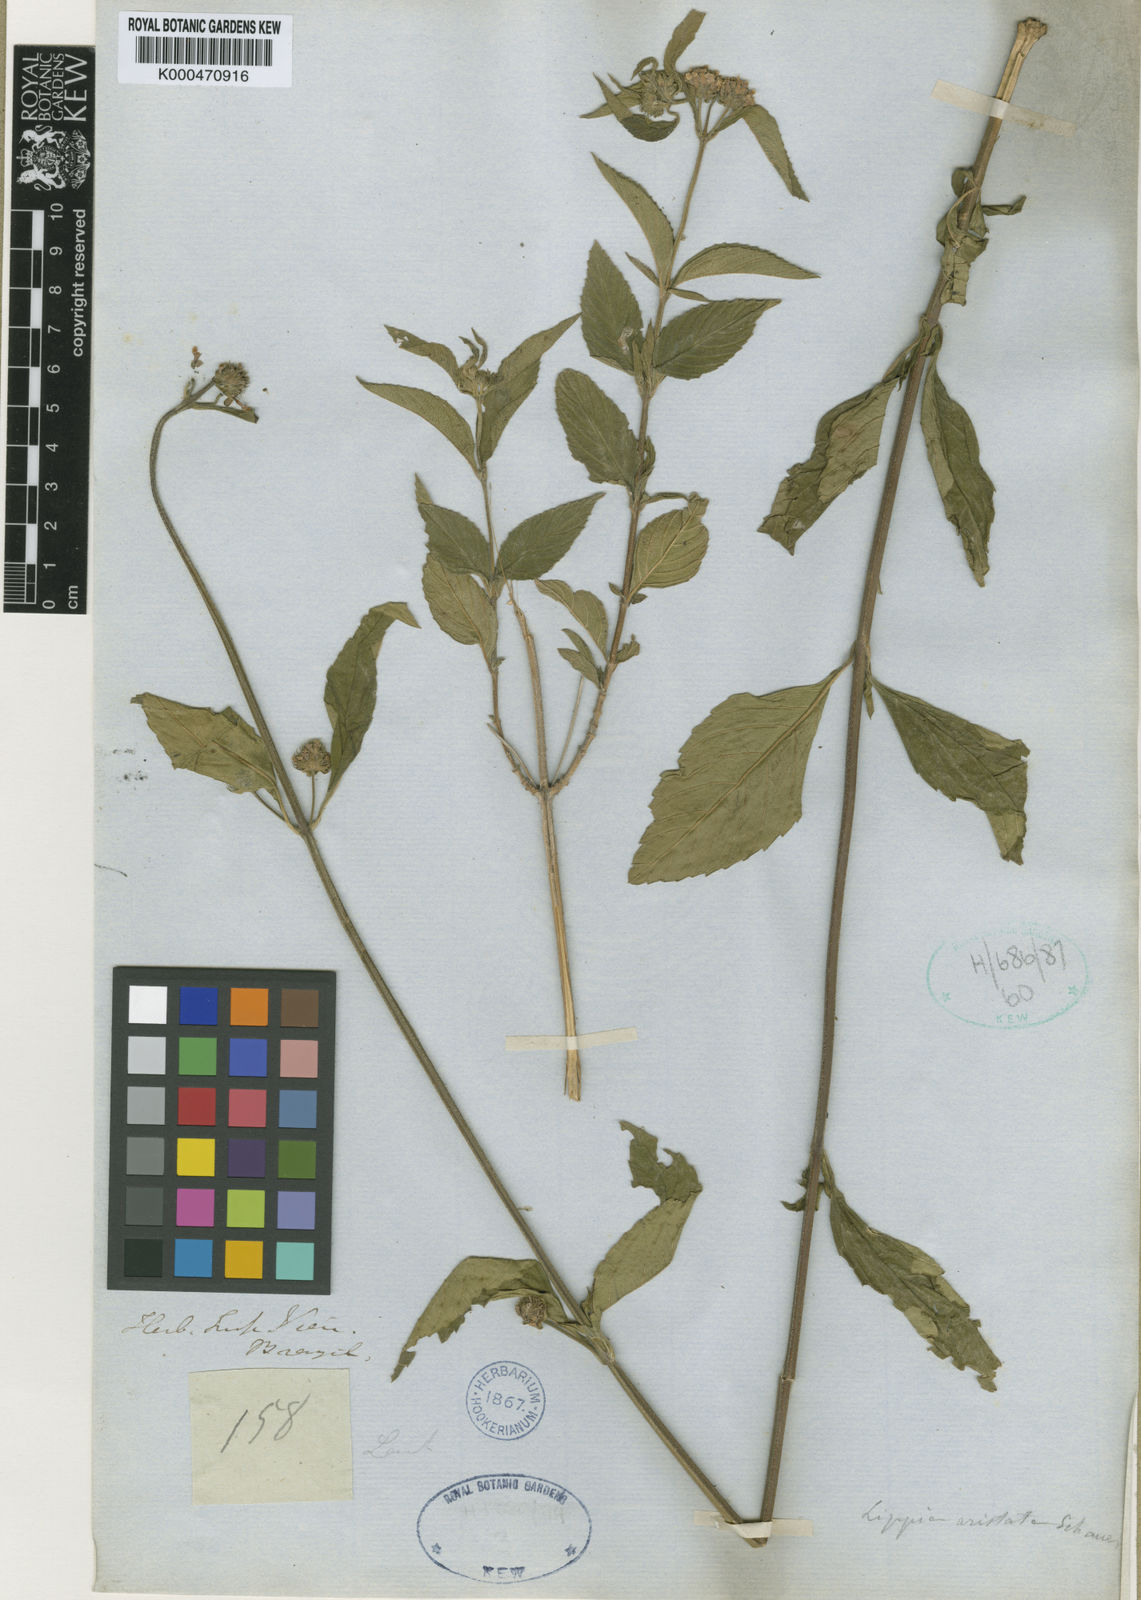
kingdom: Plantae
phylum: Tracheophyta
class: Magnoliopsida
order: Lamiales
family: Verbenaceae
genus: Lippia
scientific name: Lippia aristata
